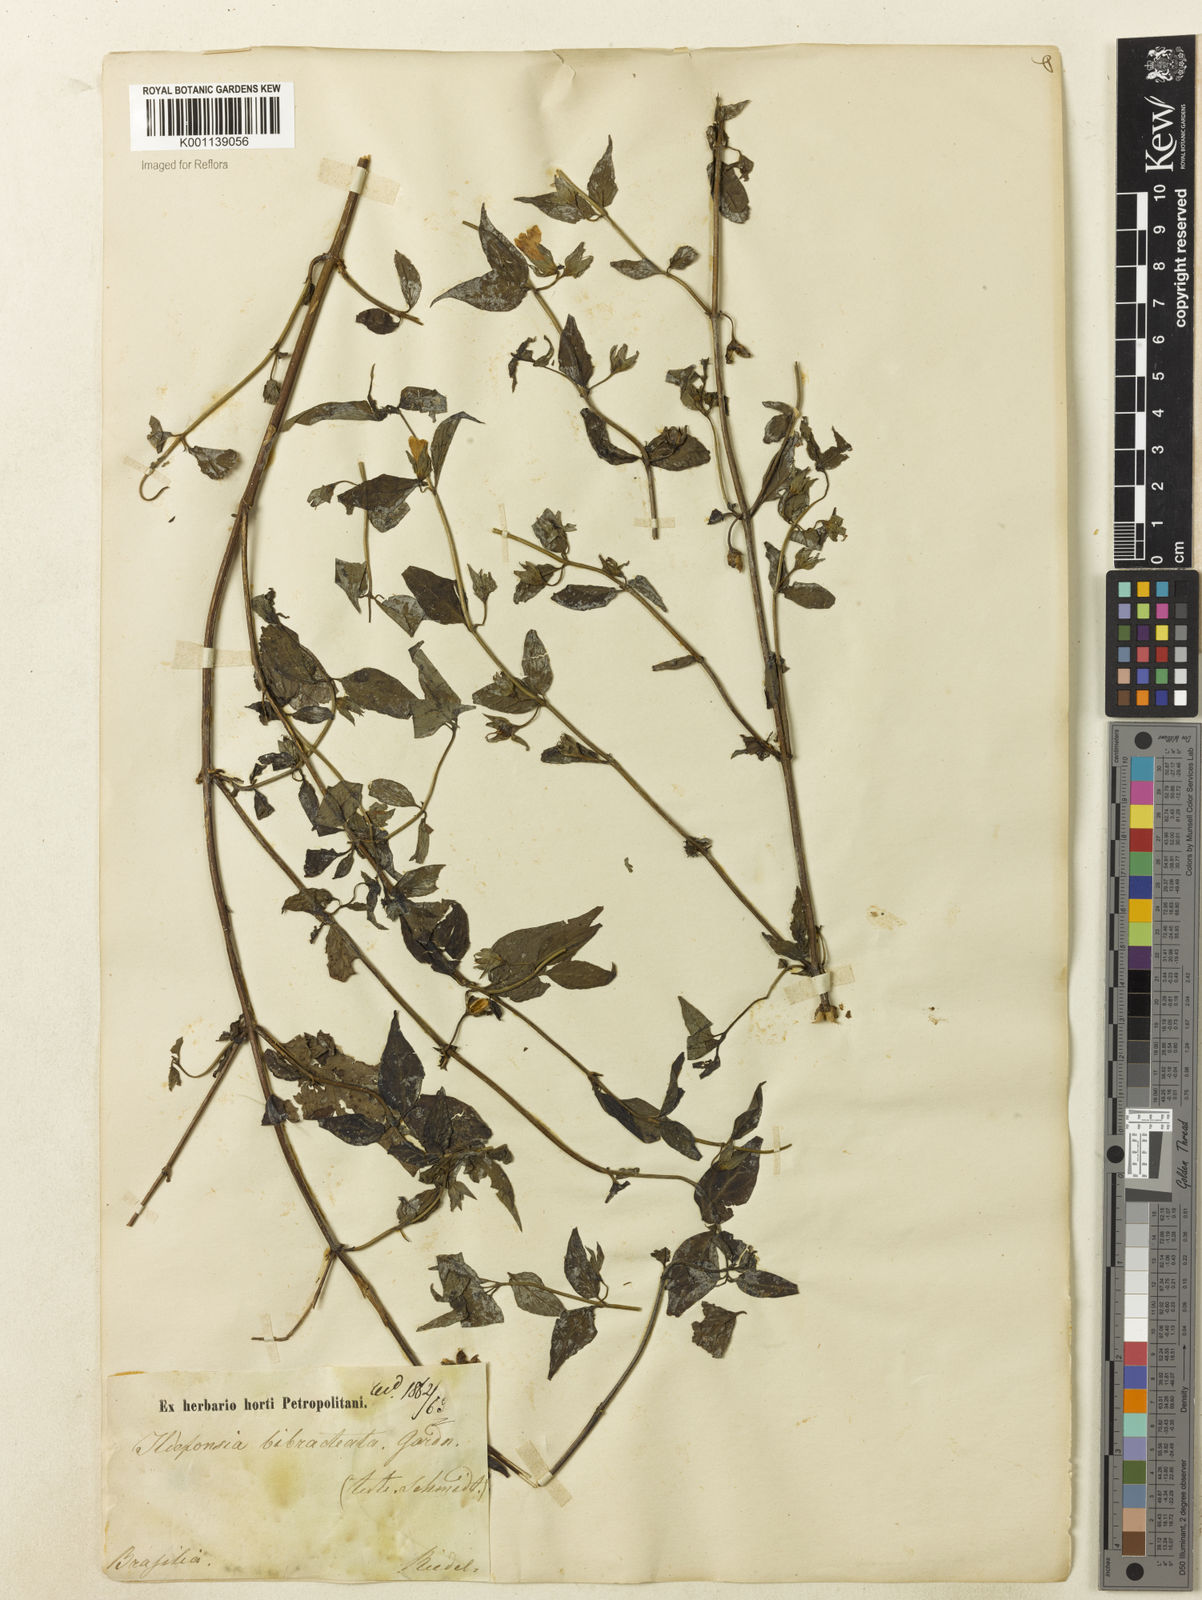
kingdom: Plantae
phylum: Tracheophyta
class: Magnoliopsida
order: Lamiales
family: Plantaginaceae
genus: Bacopa
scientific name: Bacopa
